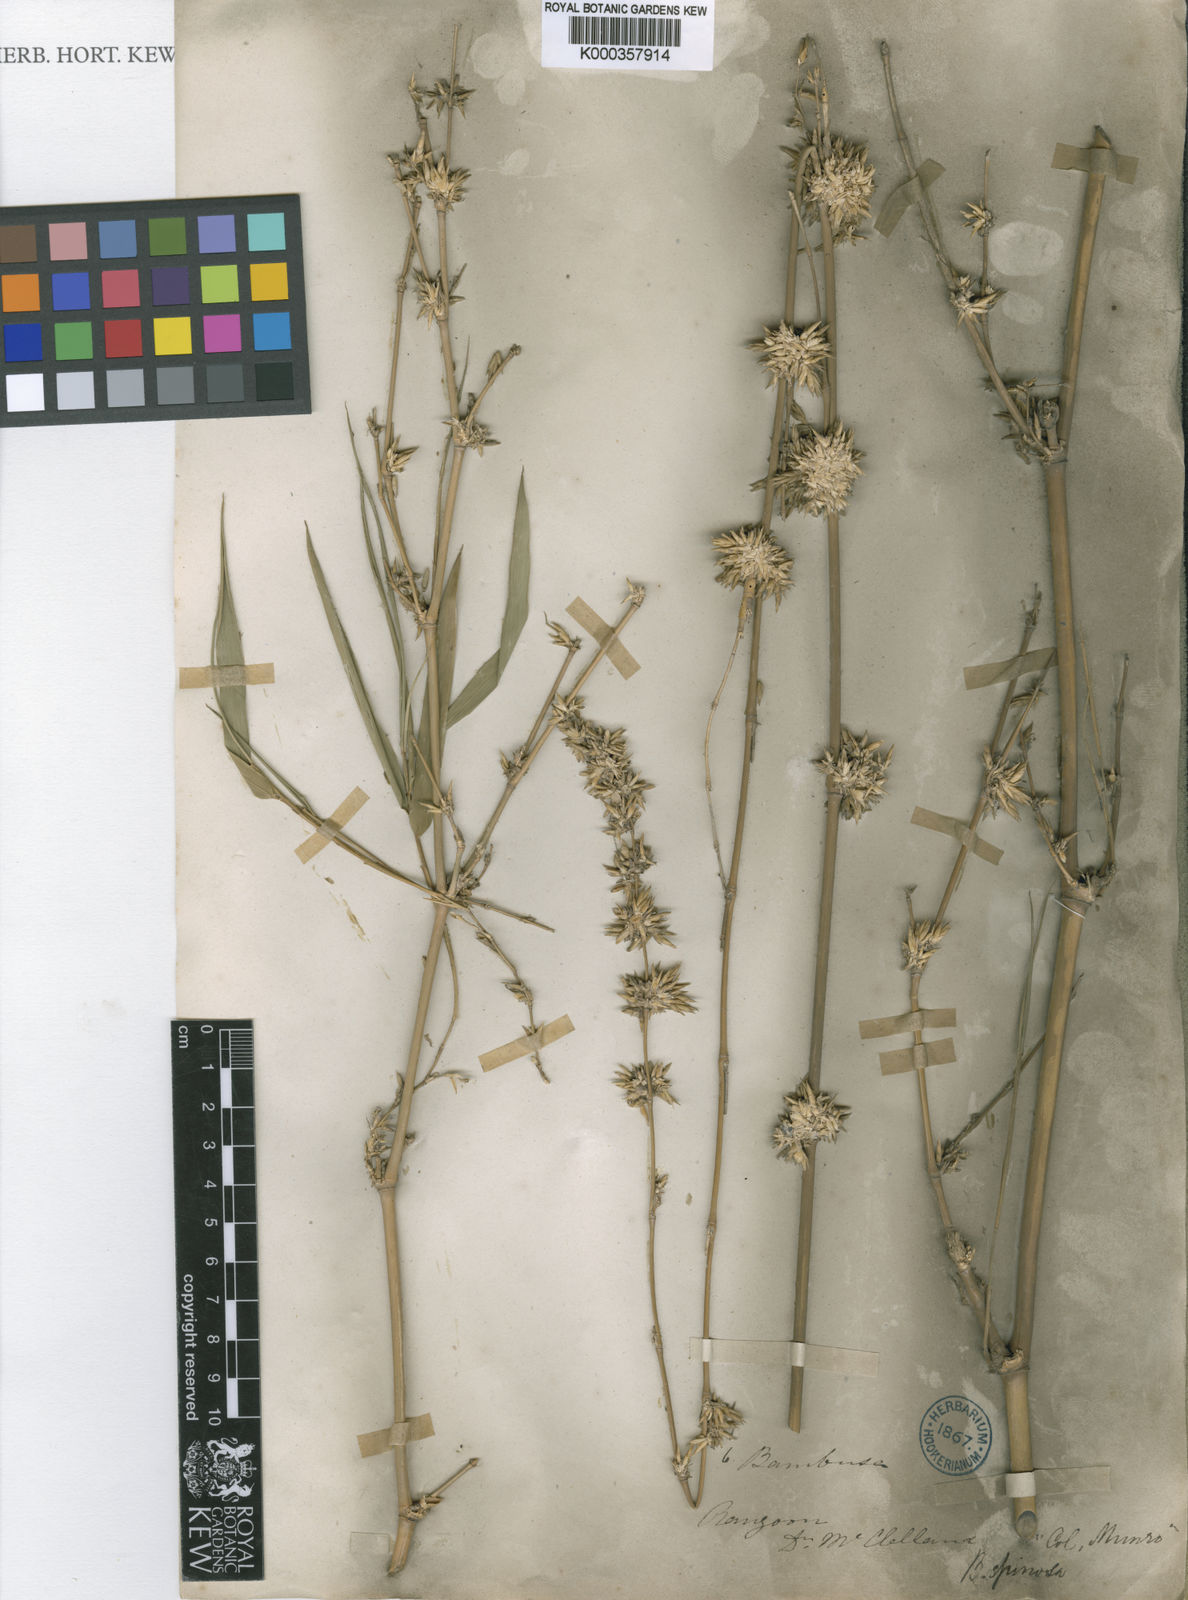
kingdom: Plantae
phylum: Tracheophyta
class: Liliopsida
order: Poales
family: Poaceae
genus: Bambusa
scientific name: Bambusa
